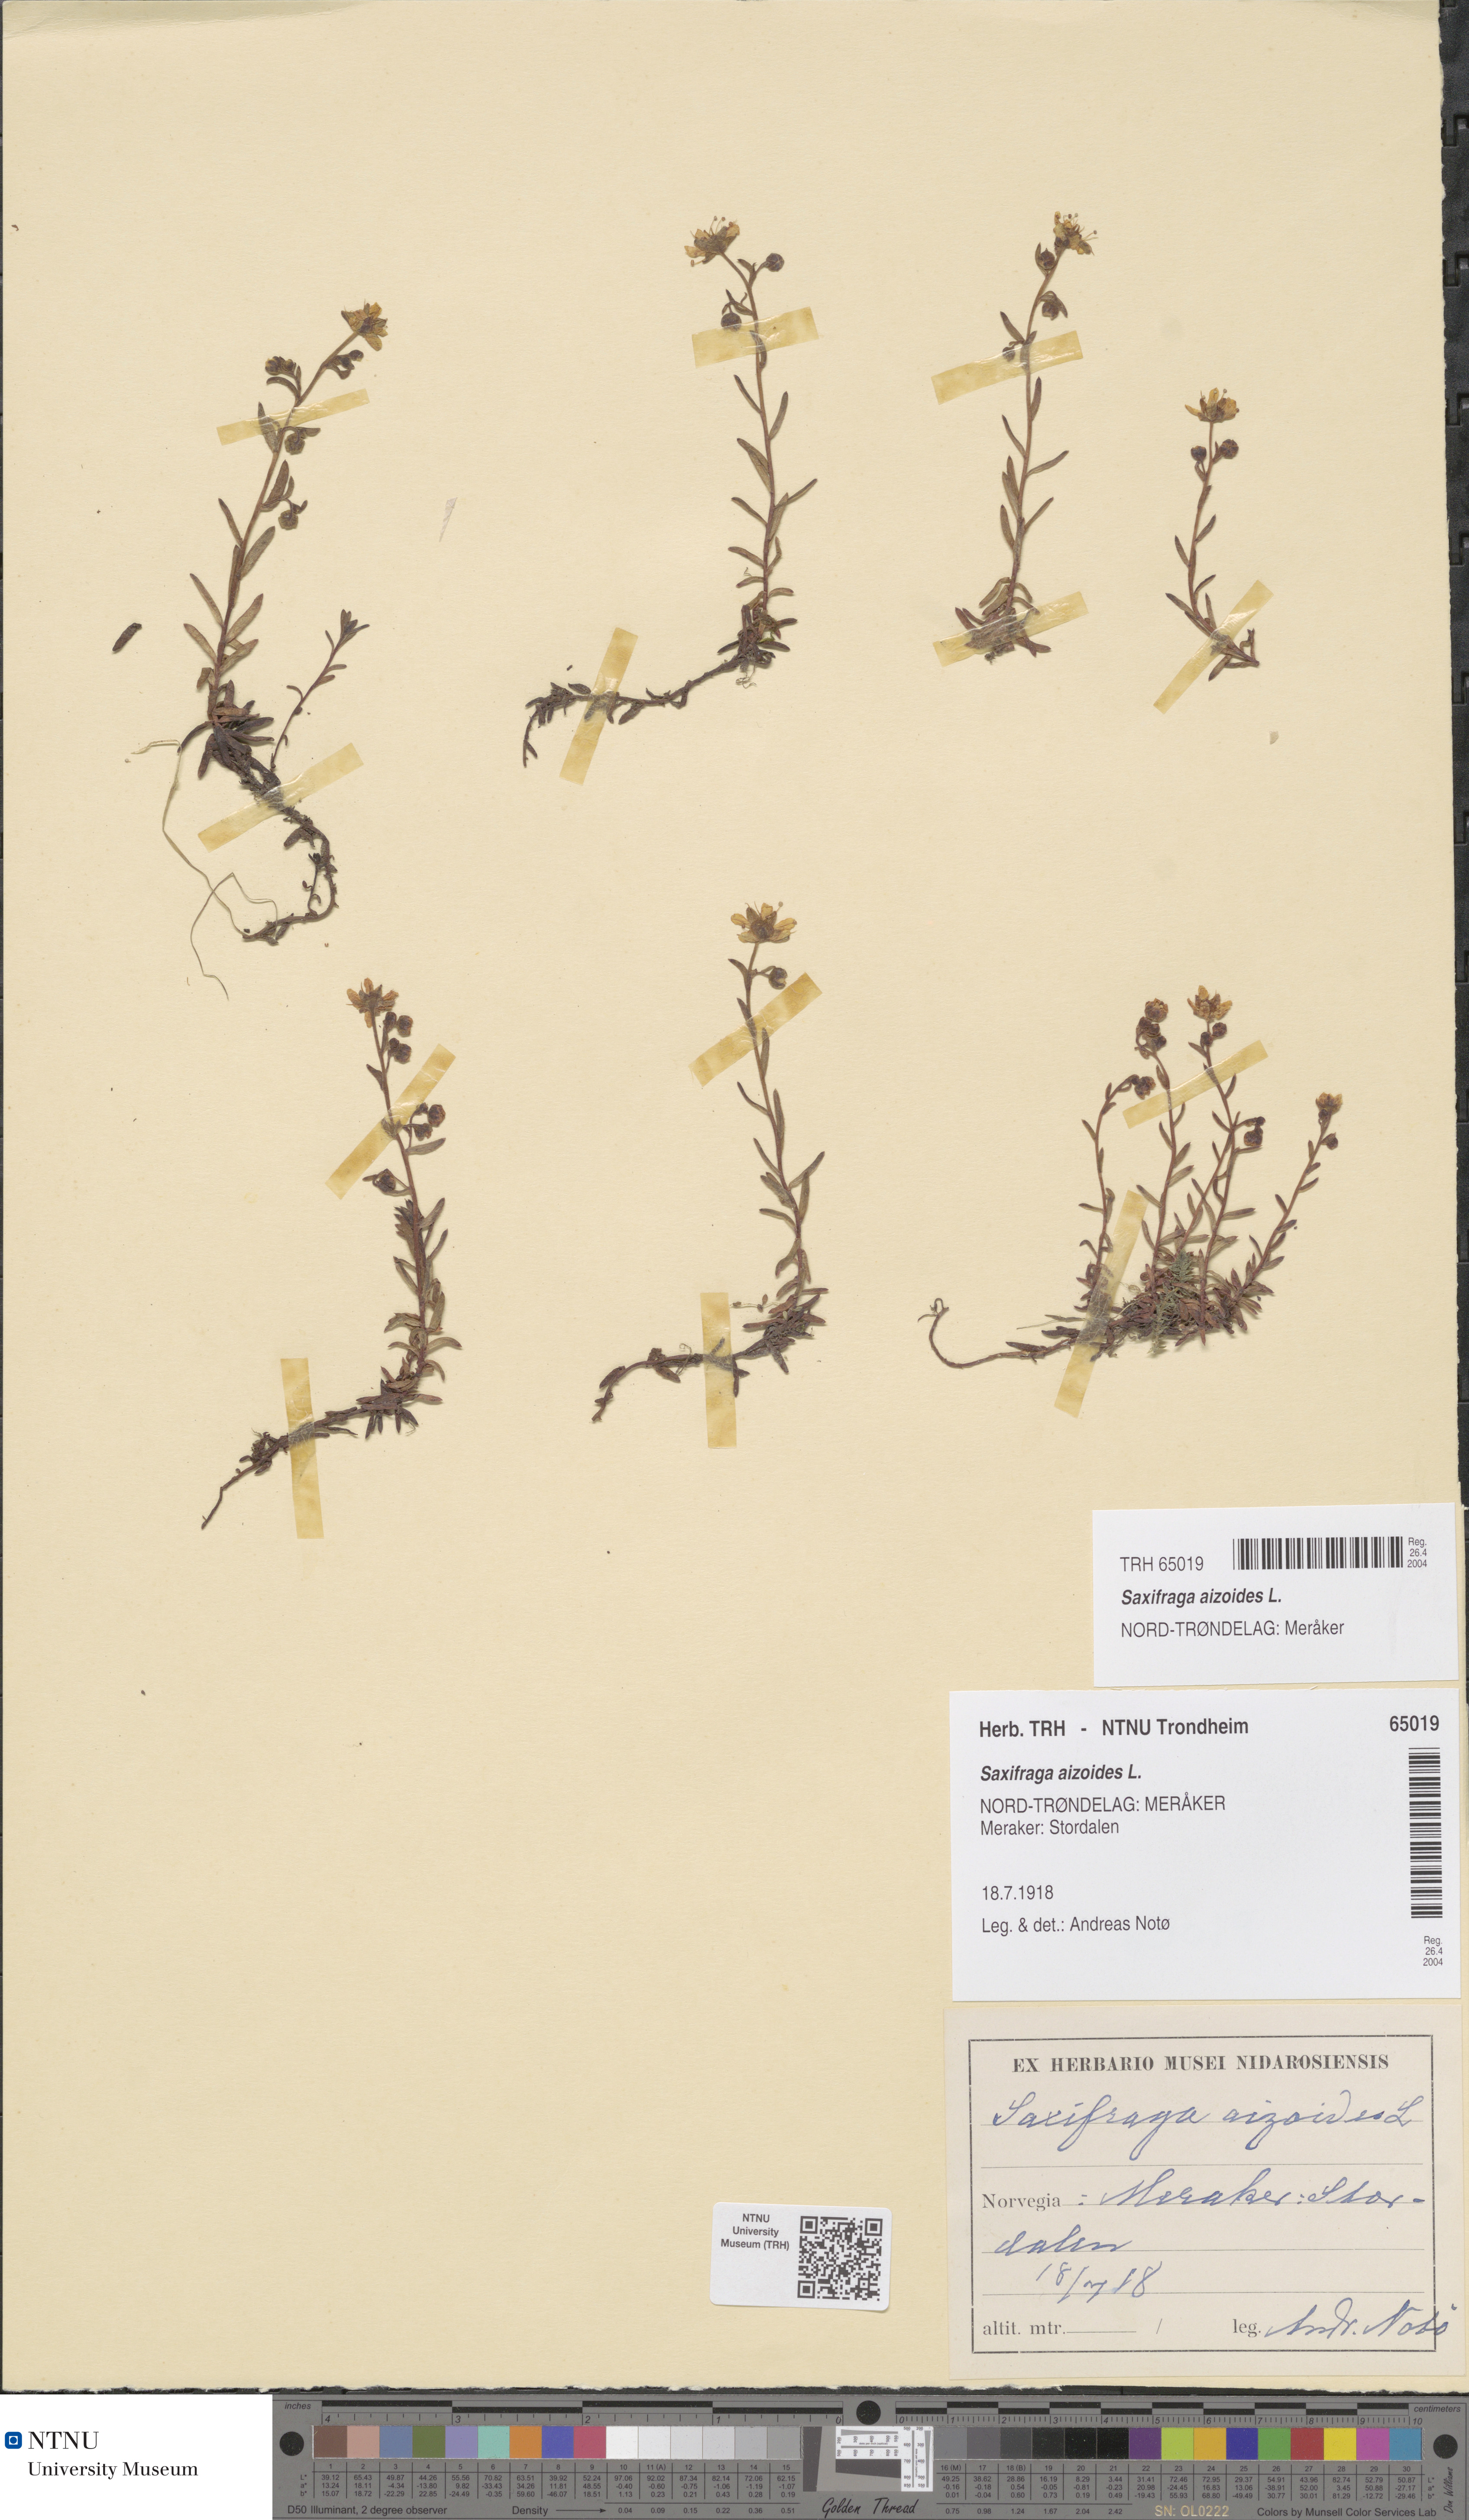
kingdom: Plantae
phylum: Tracheophyta
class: Magnoliopsida
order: Saxifragales
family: Saxifragaceae
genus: Saxifraga
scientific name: Saxifraga aizoides
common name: Yellow mountain saxifrage
